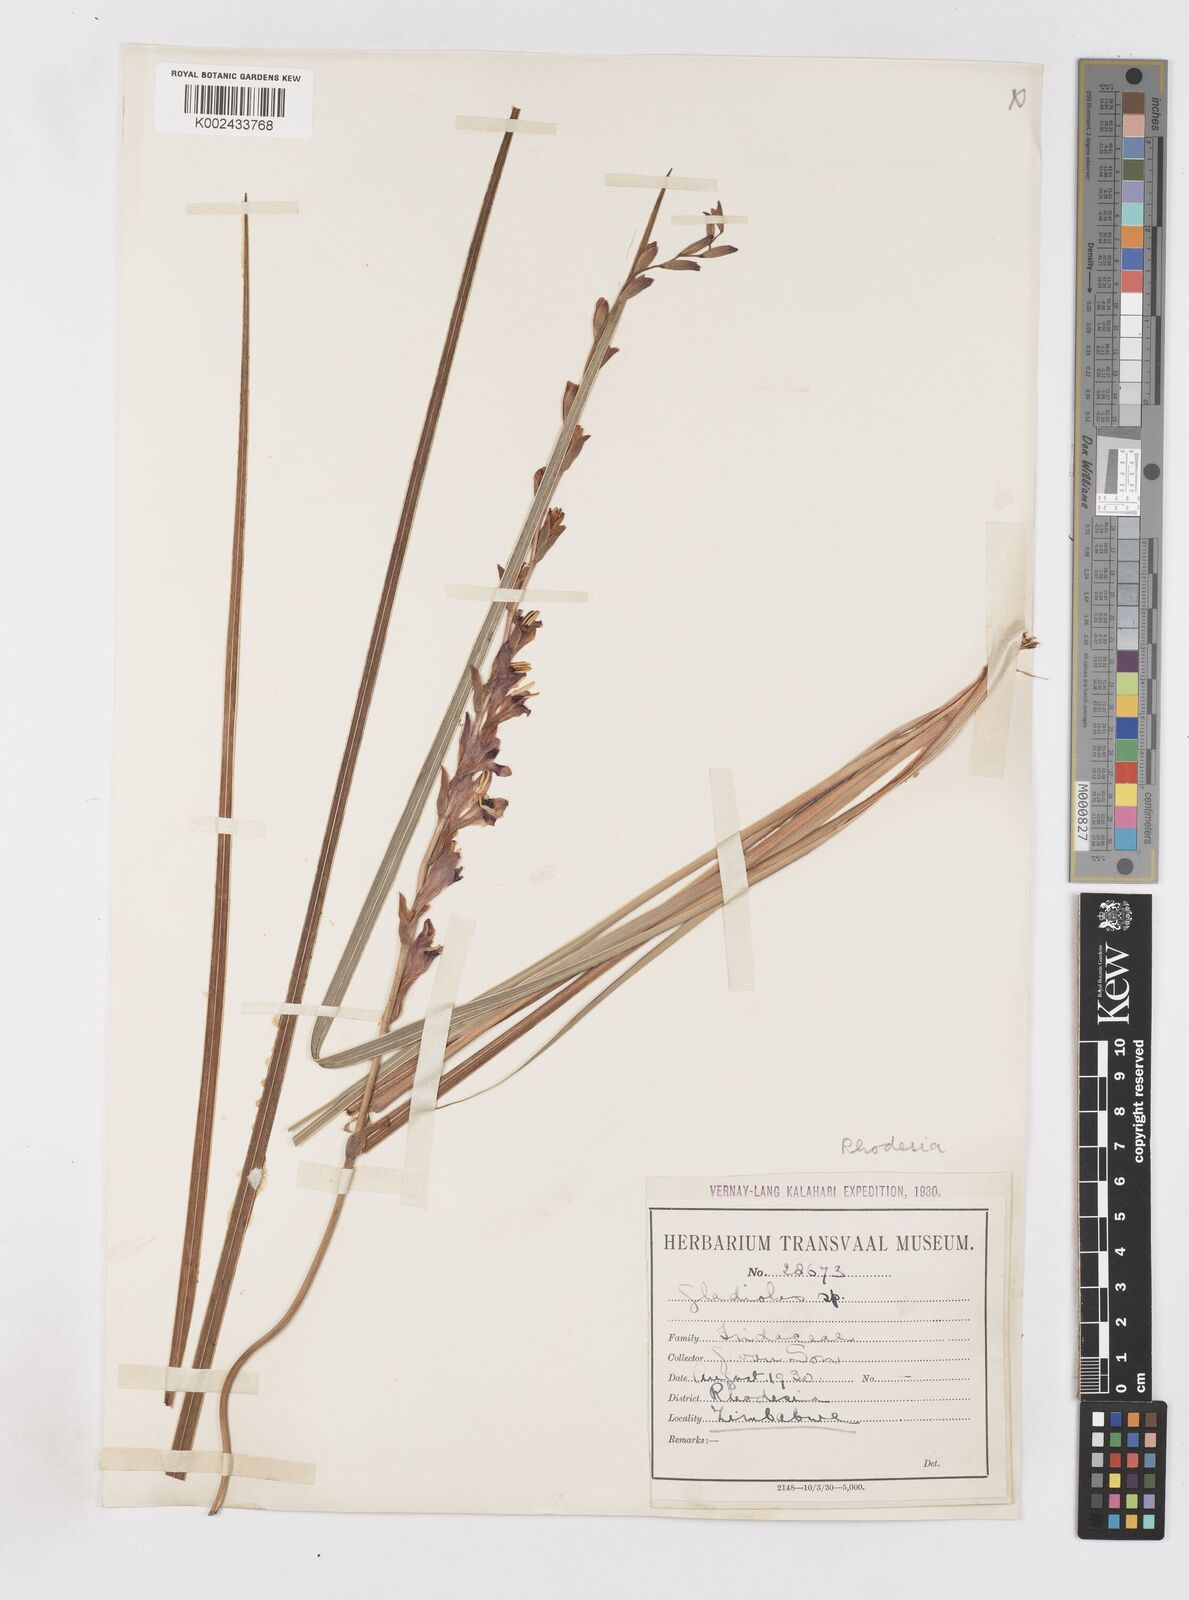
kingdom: Plantae
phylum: Tracheophyta
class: Liliopsida
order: Asparagales
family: Iridaceae
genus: Gladiolus
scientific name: Gladiolus crassifolius
